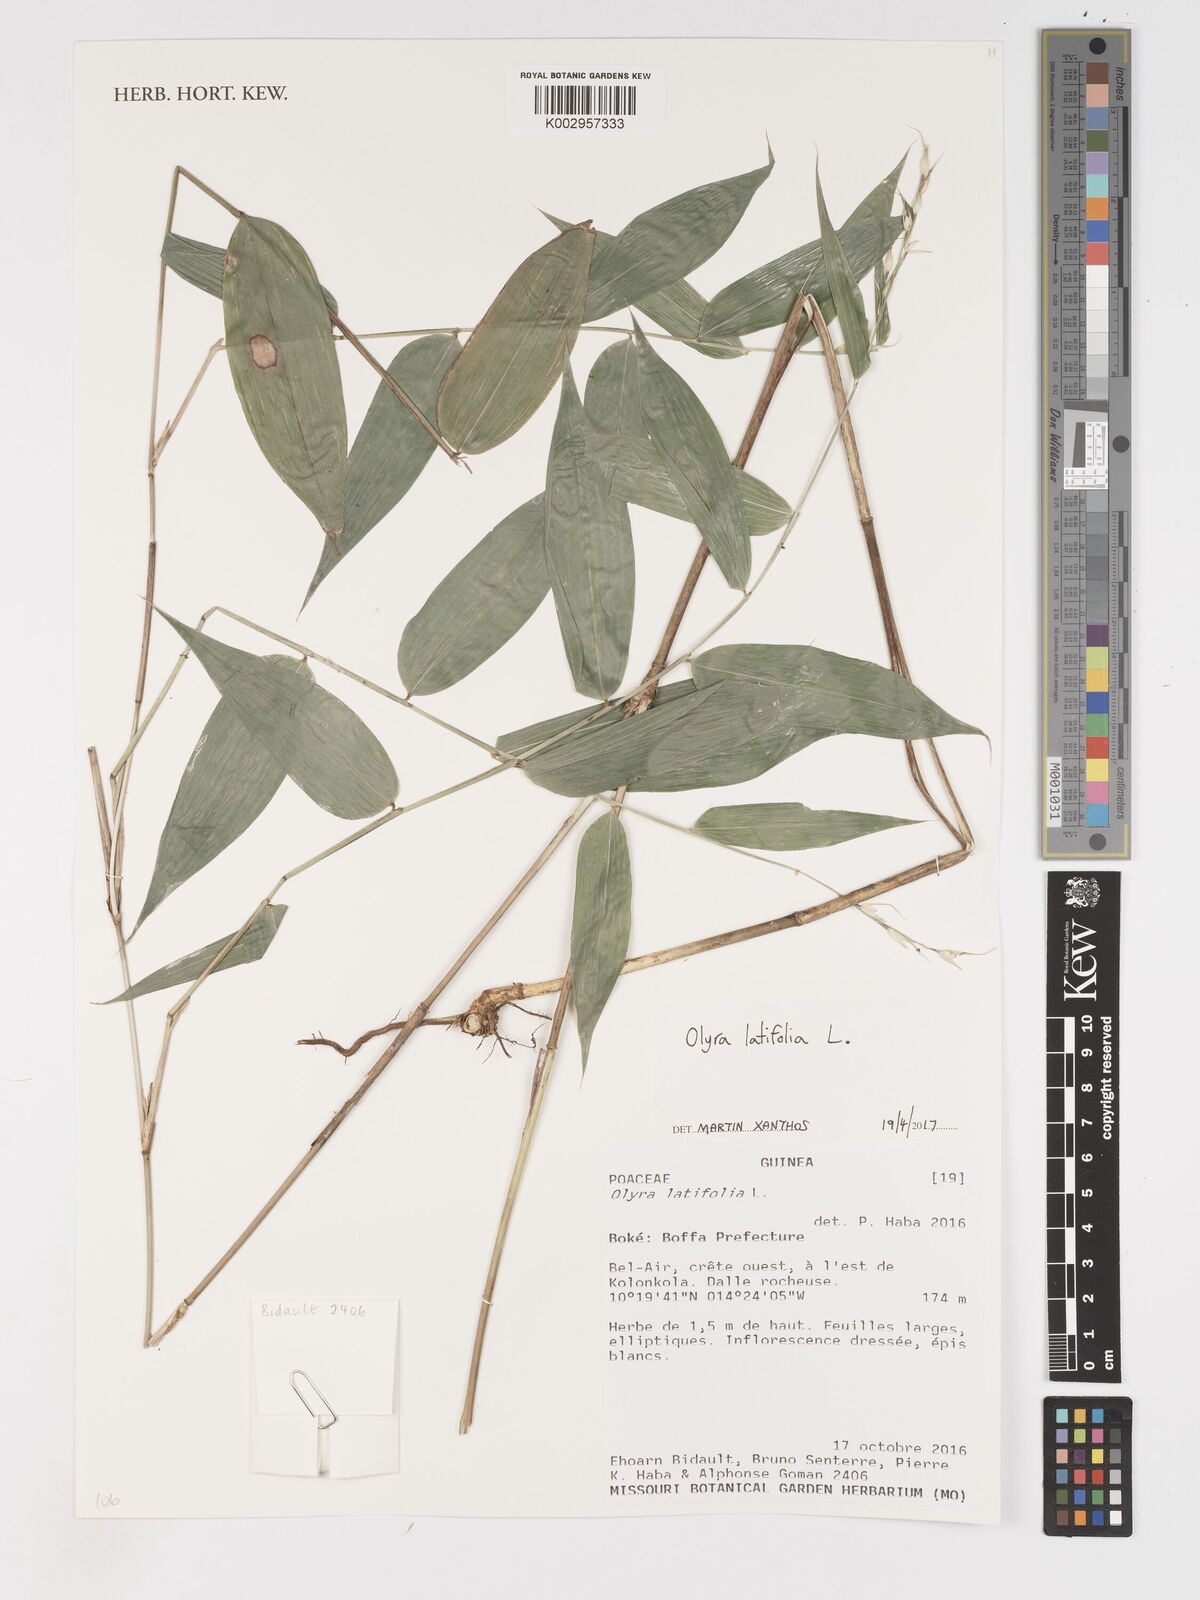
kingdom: Plantae
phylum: Tracheophyta
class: Liliopsida
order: Poales
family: Poaceae
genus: Olyra
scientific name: Olyra latifolia
